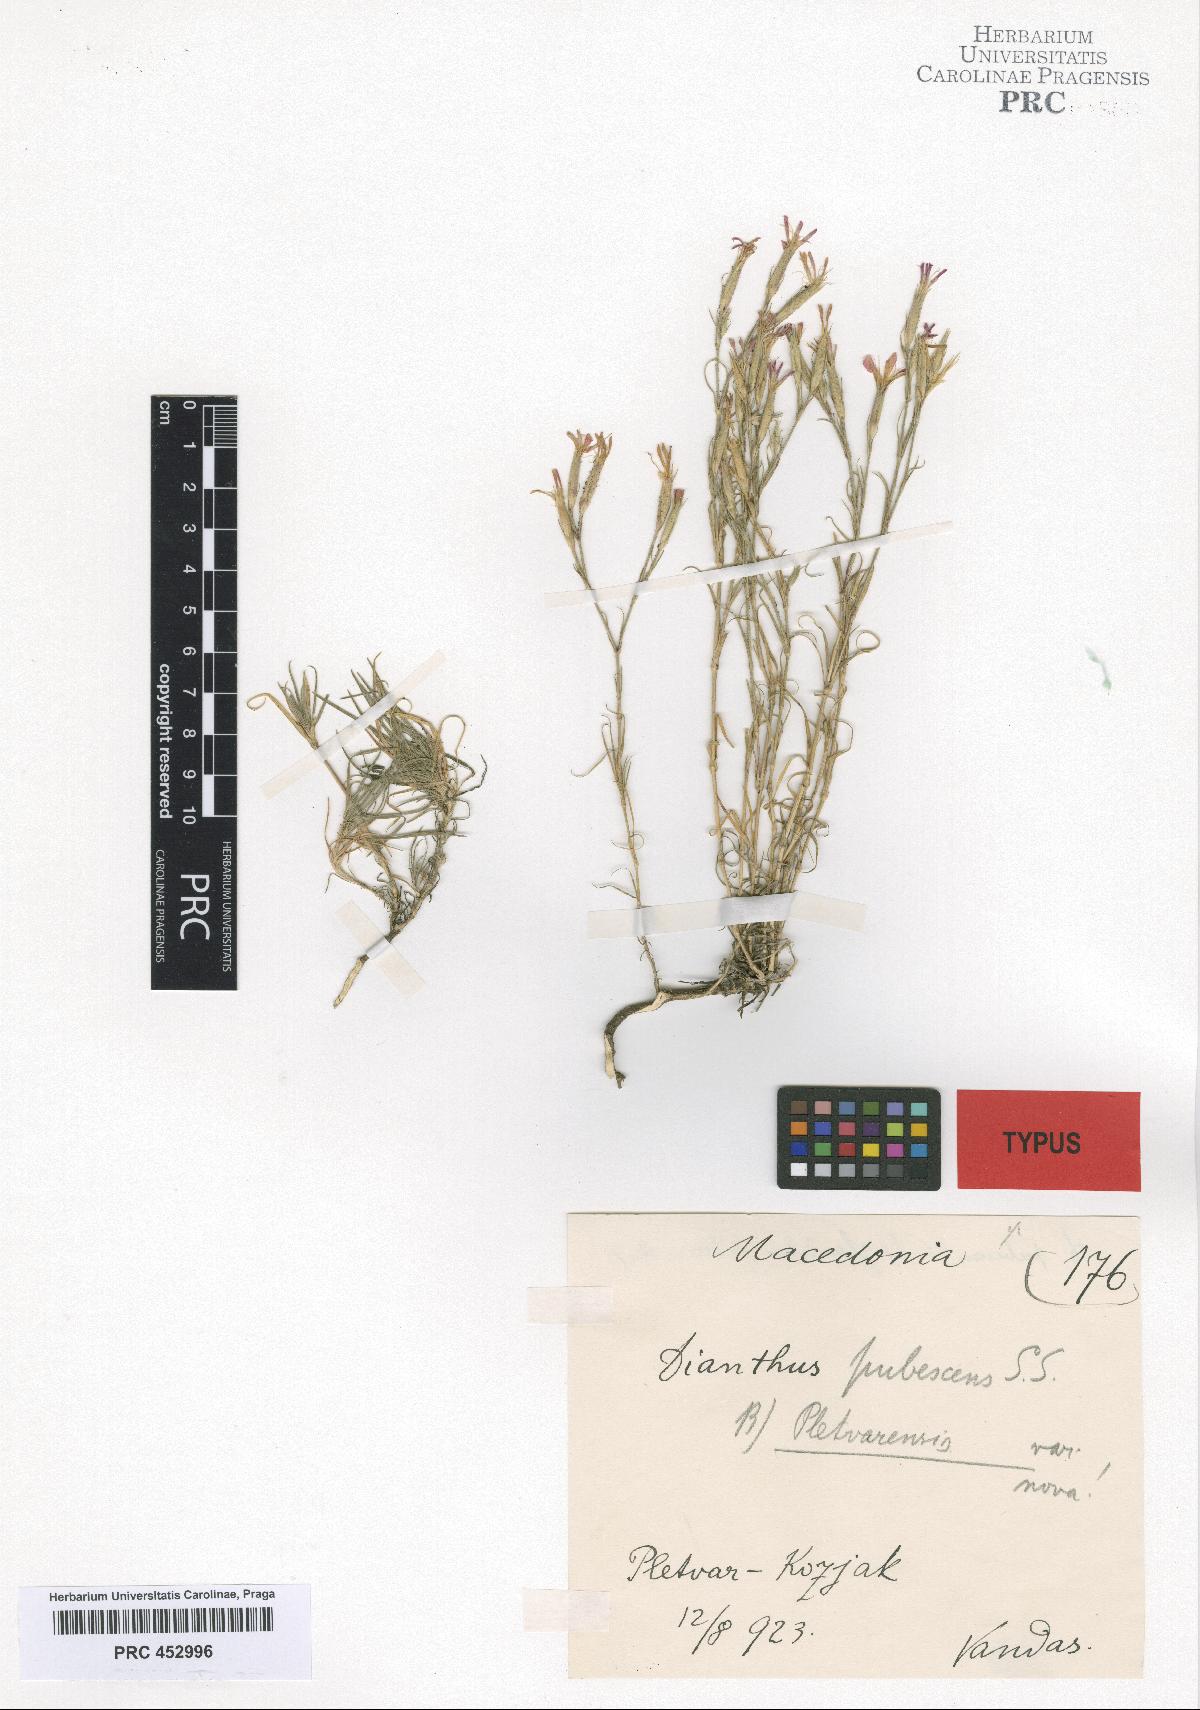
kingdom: Plantae
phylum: Tracheophyta
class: Magnoliopsida
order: Caryophyllales
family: Caryophyllaceae
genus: Dianthus
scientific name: Dianthus
